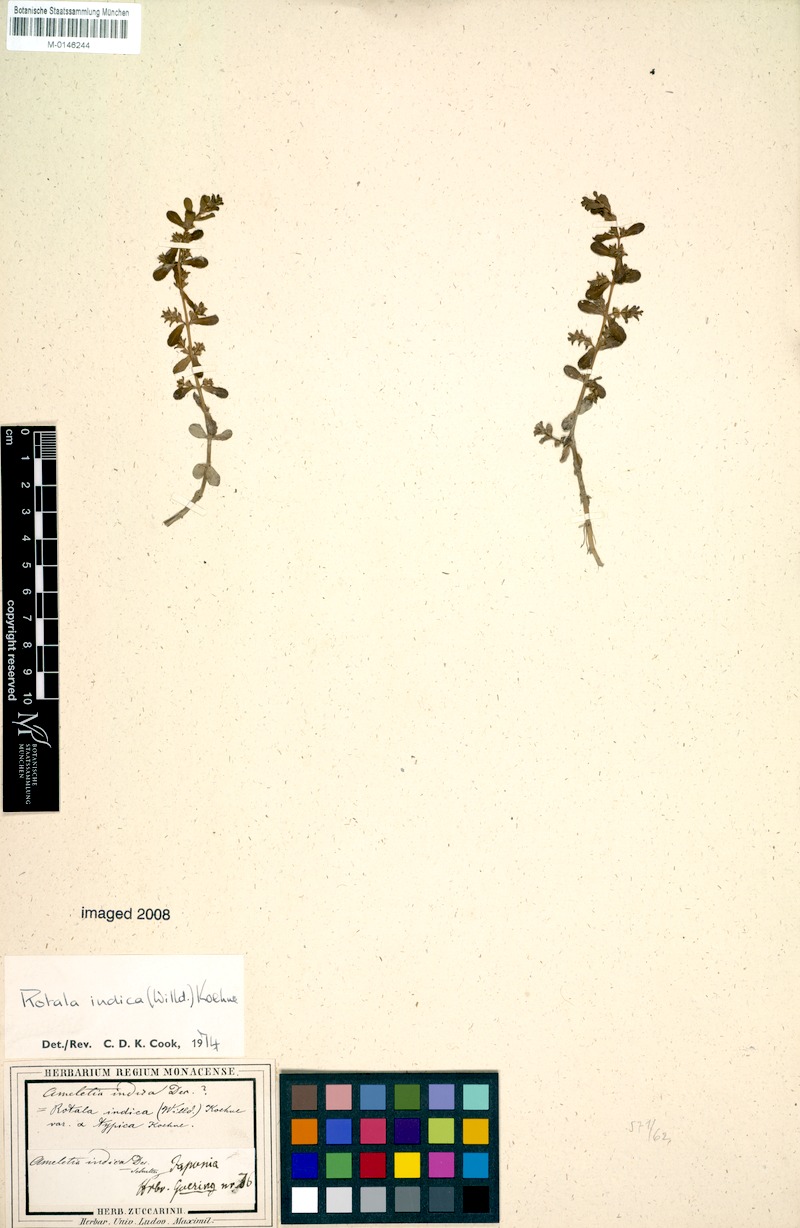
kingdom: Plantae
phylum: Tracheophyta
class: Magnoliopsida
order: Myrtales
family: Lythraceae
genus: Rotala
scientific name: Rotala indica
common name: Indian toothcup
